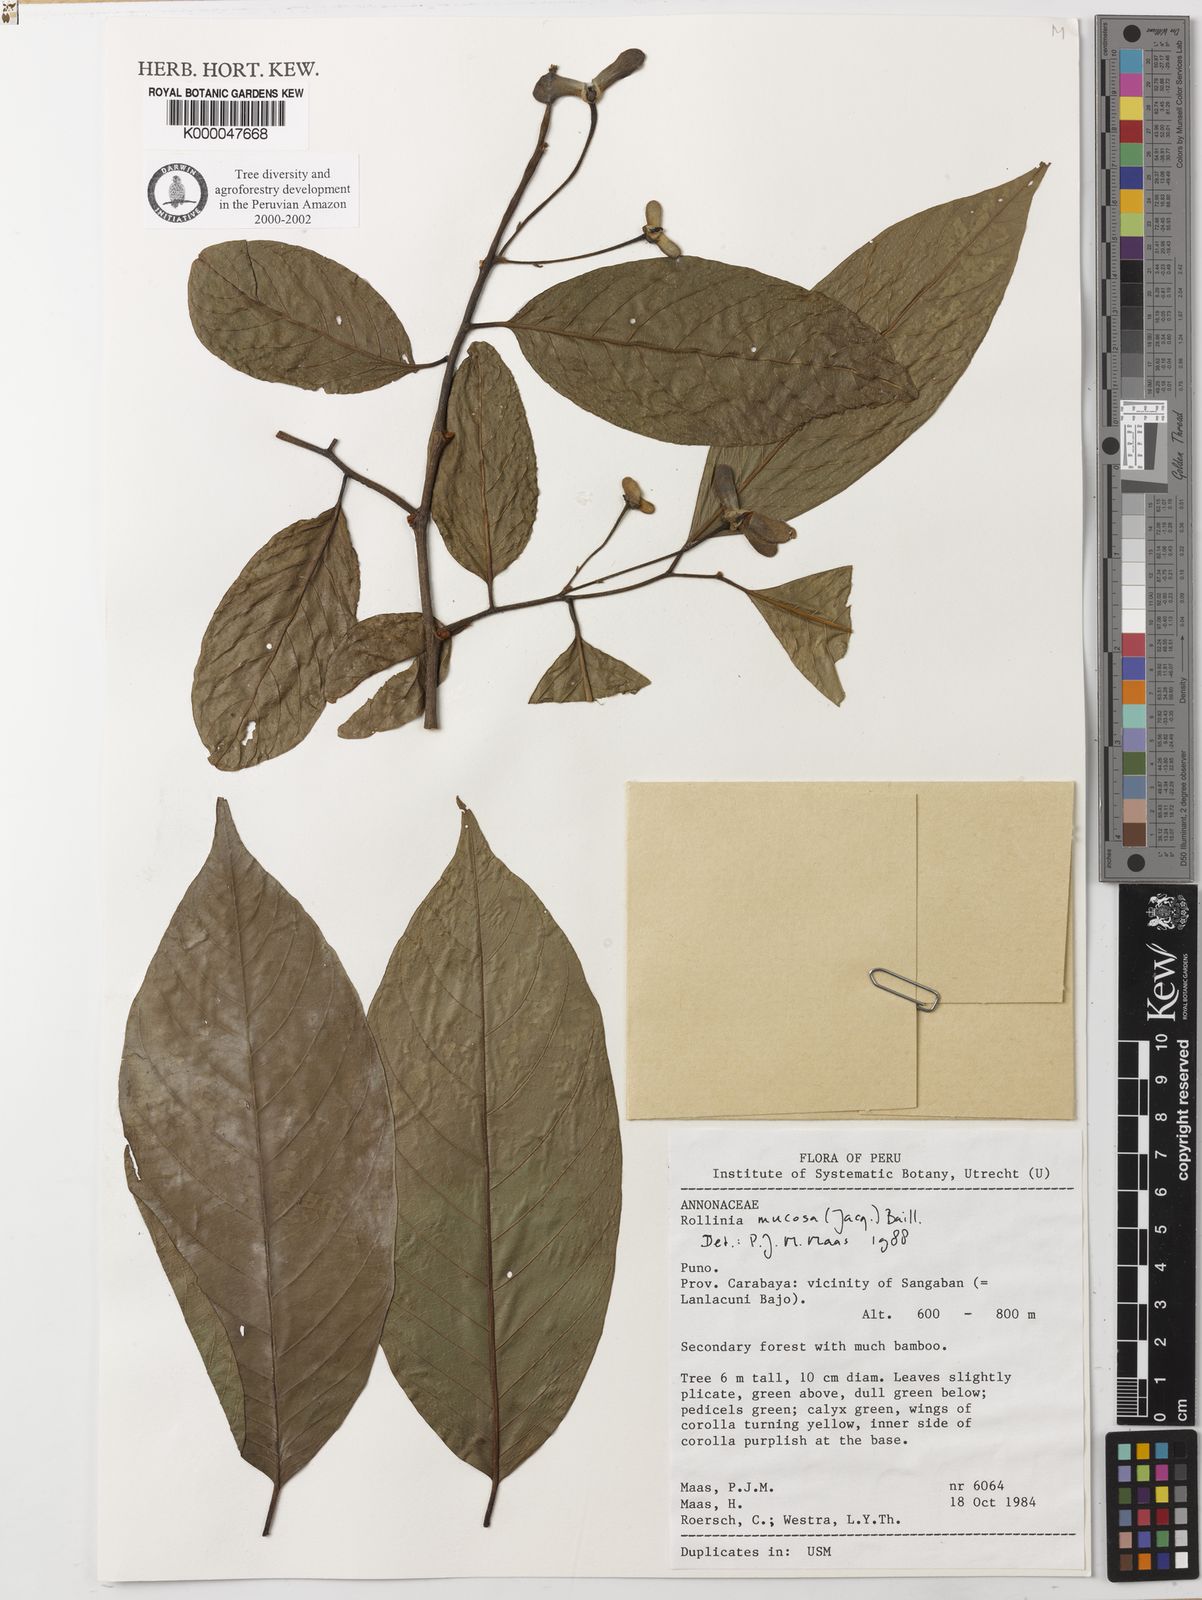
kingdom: Plantae
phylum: Tracheophyta
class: Magnoliopsida
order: Magnoliales
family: Annonaceae
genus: Annona
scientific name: Annona mucosa
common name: Sugar apple
